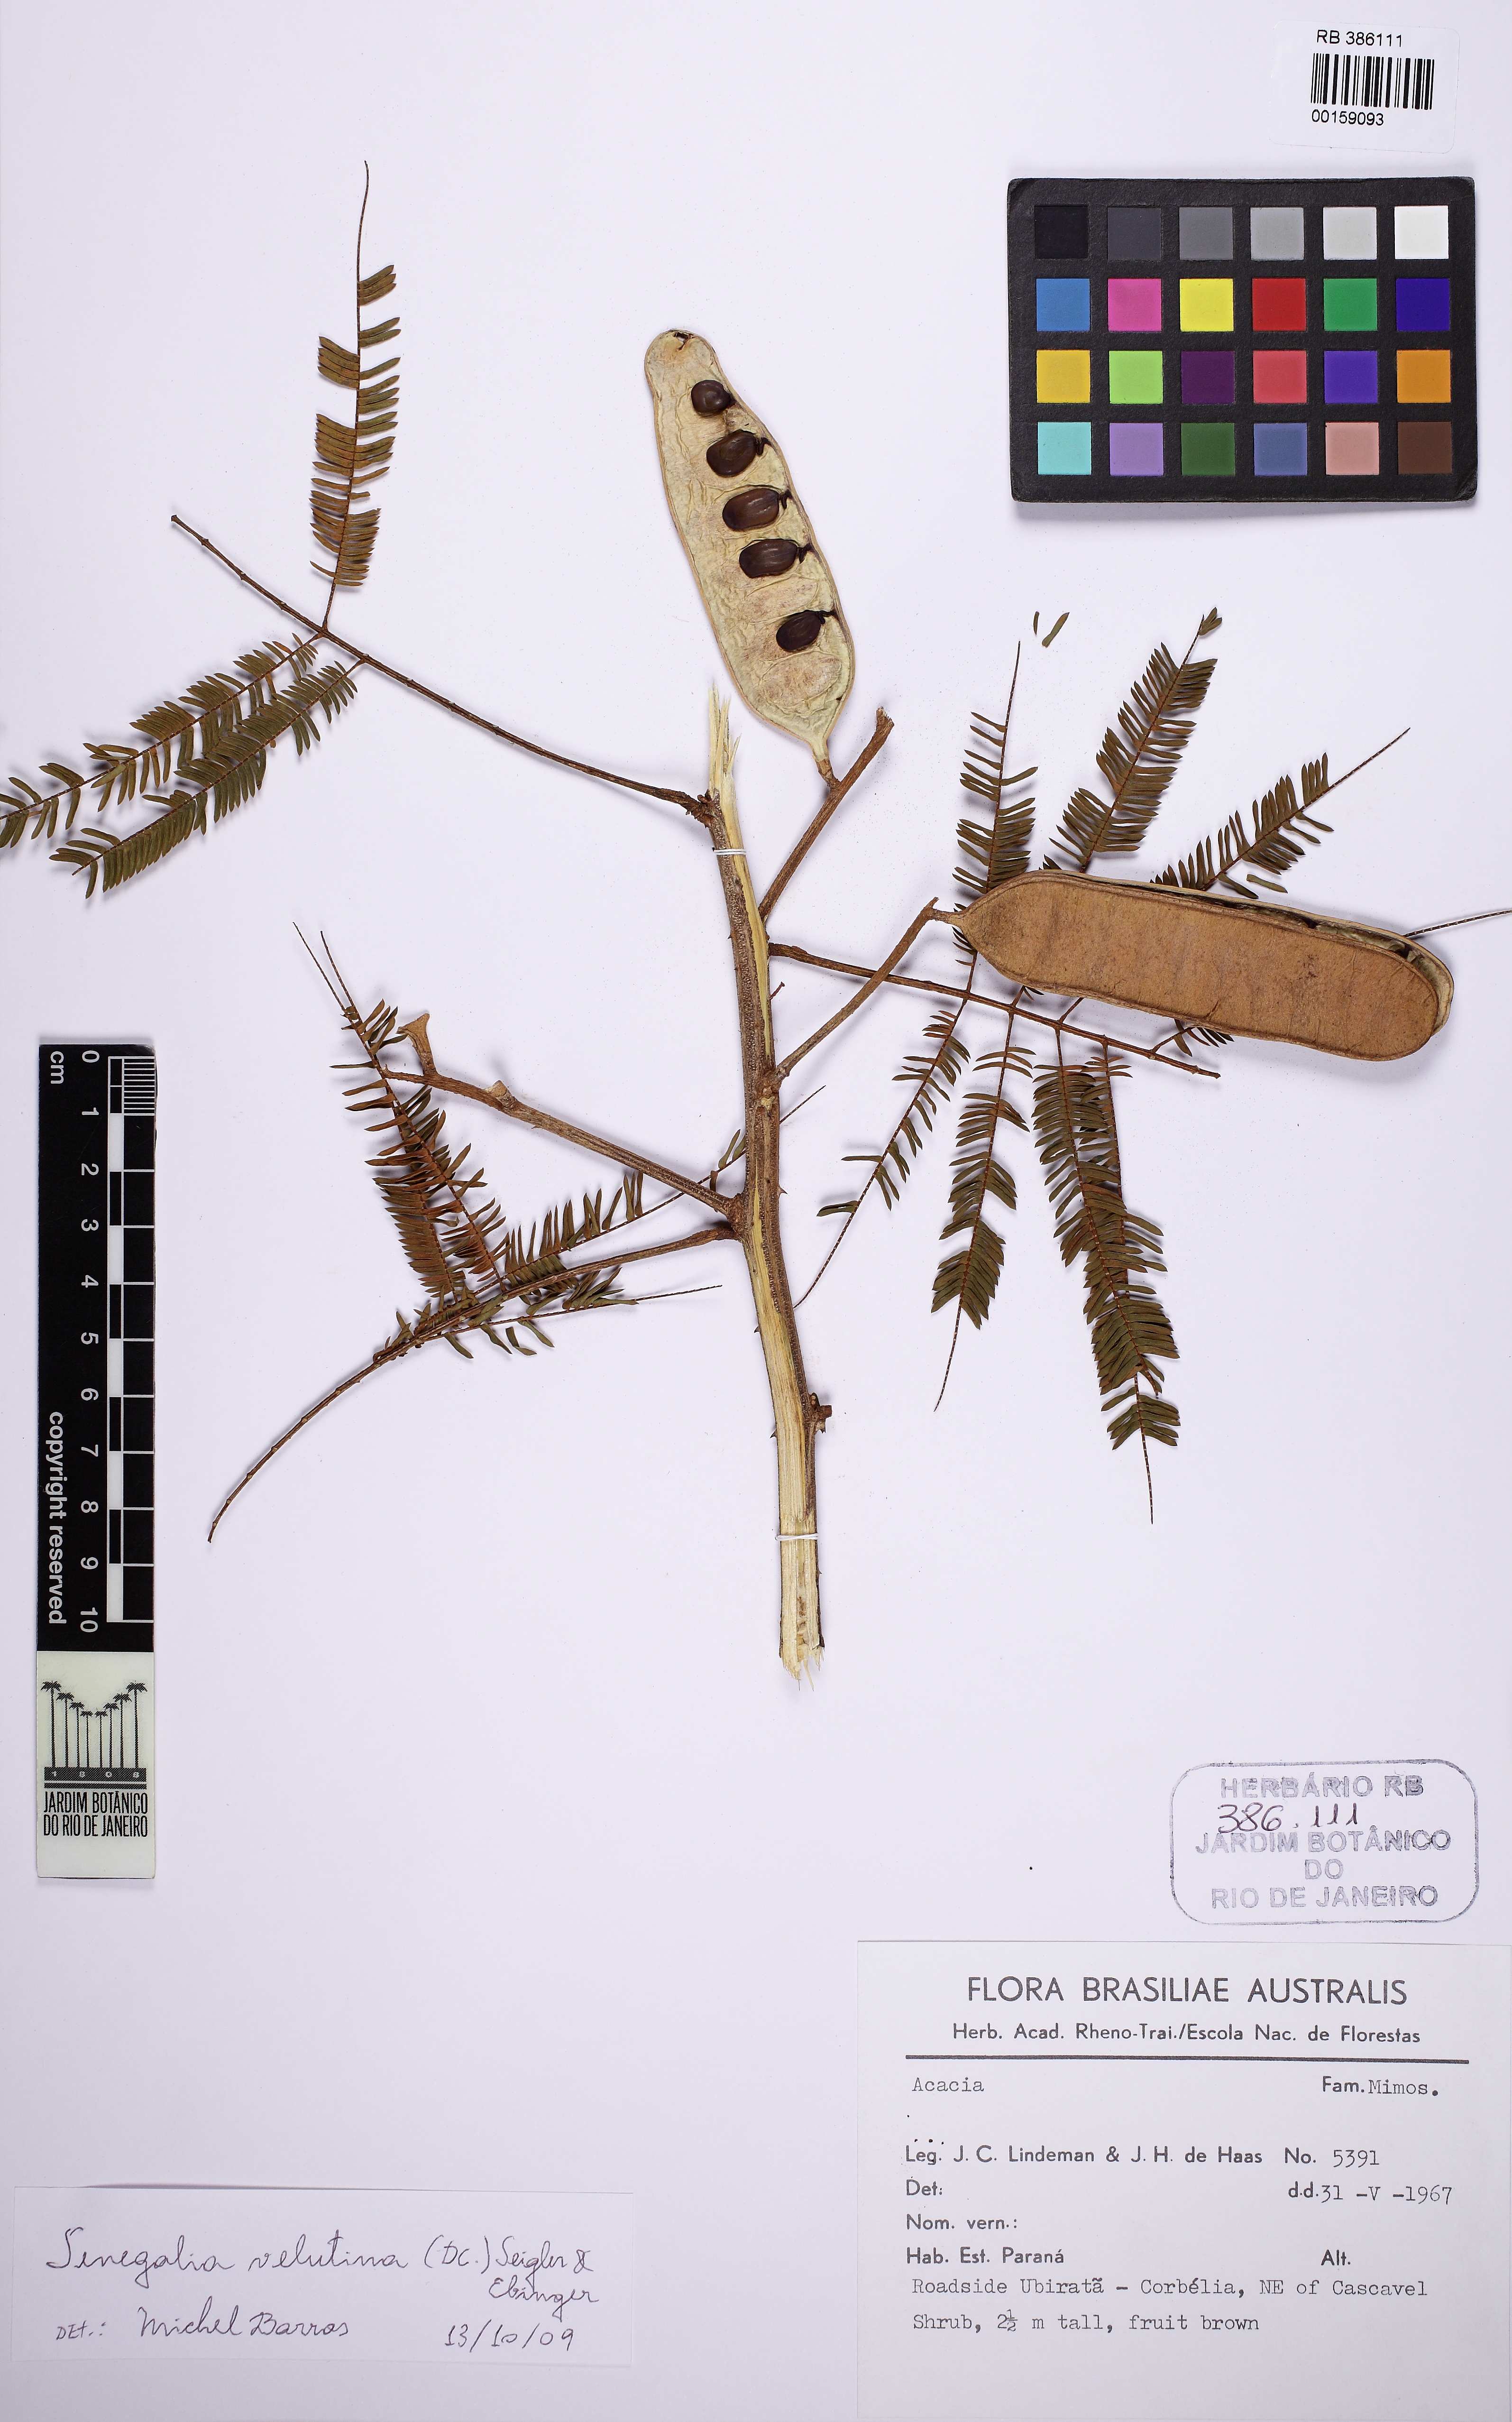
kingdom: Plantae
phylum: Tracheophyta
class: Magnoliopsida
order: Fabales
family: Fabaceae
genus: Senegalia
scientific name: Senegalia velutina
